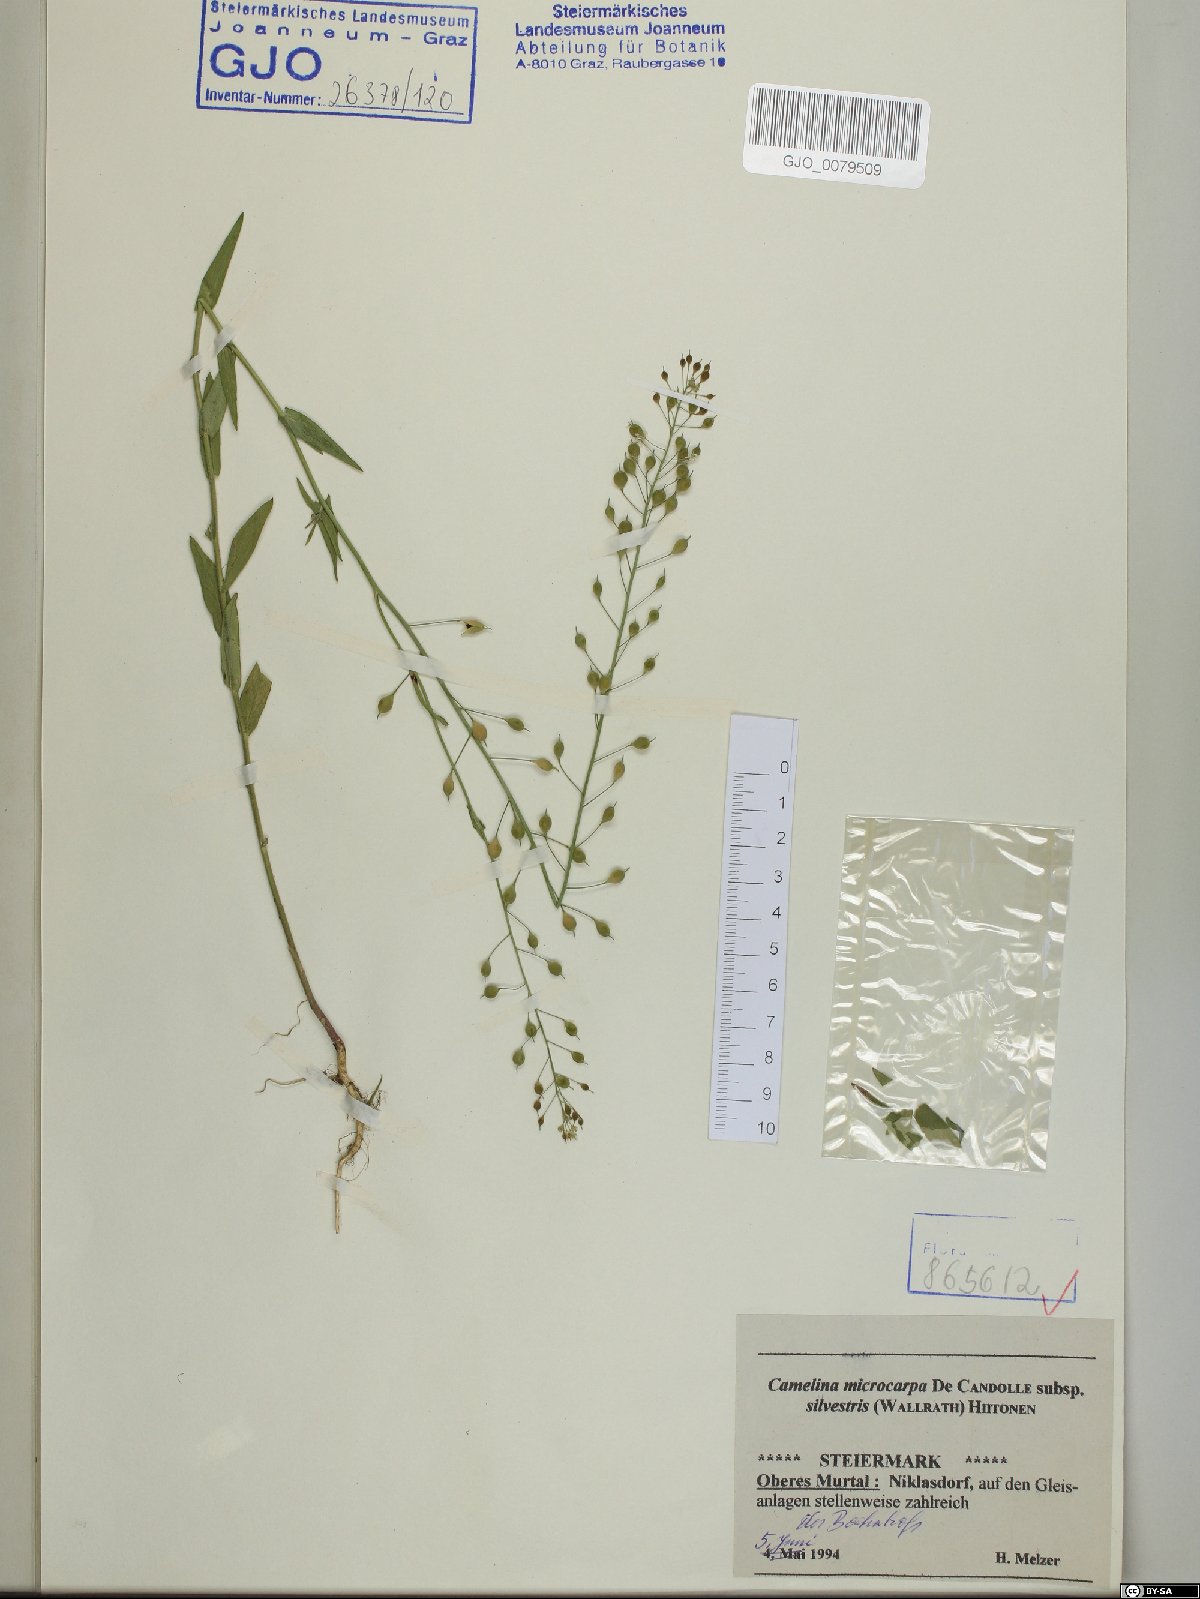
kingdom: Plantae
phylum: Tracheophyta
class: Magnoliopsida
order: Brassicales
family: Brassicaceae
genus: Camelina
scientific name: Camelina microcarpa
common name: Lesser gold-of-pleasure
